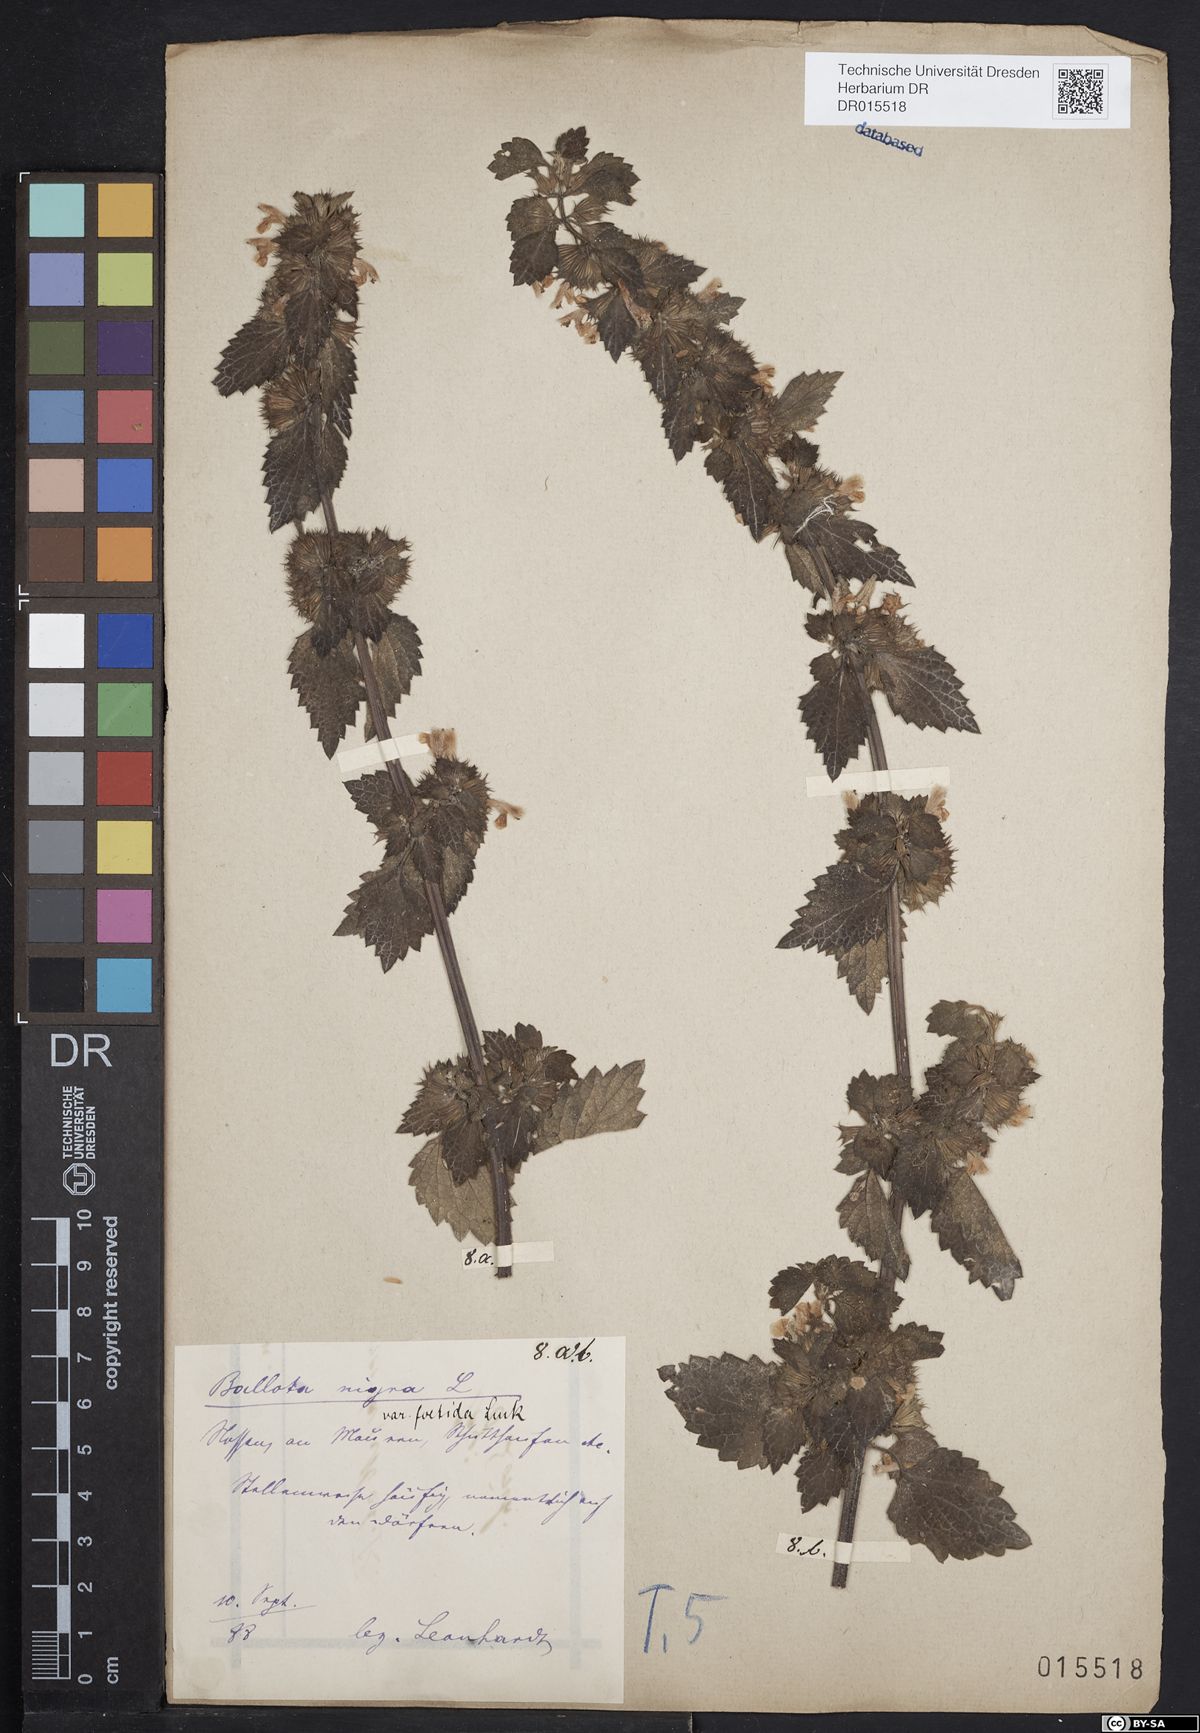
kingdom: Plantae
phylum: Tracheophyta
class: Magnoliopsida
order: Lamiales
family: Lamiaceae
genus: Ballota
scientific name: Ballota nigra
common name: Black horehound
